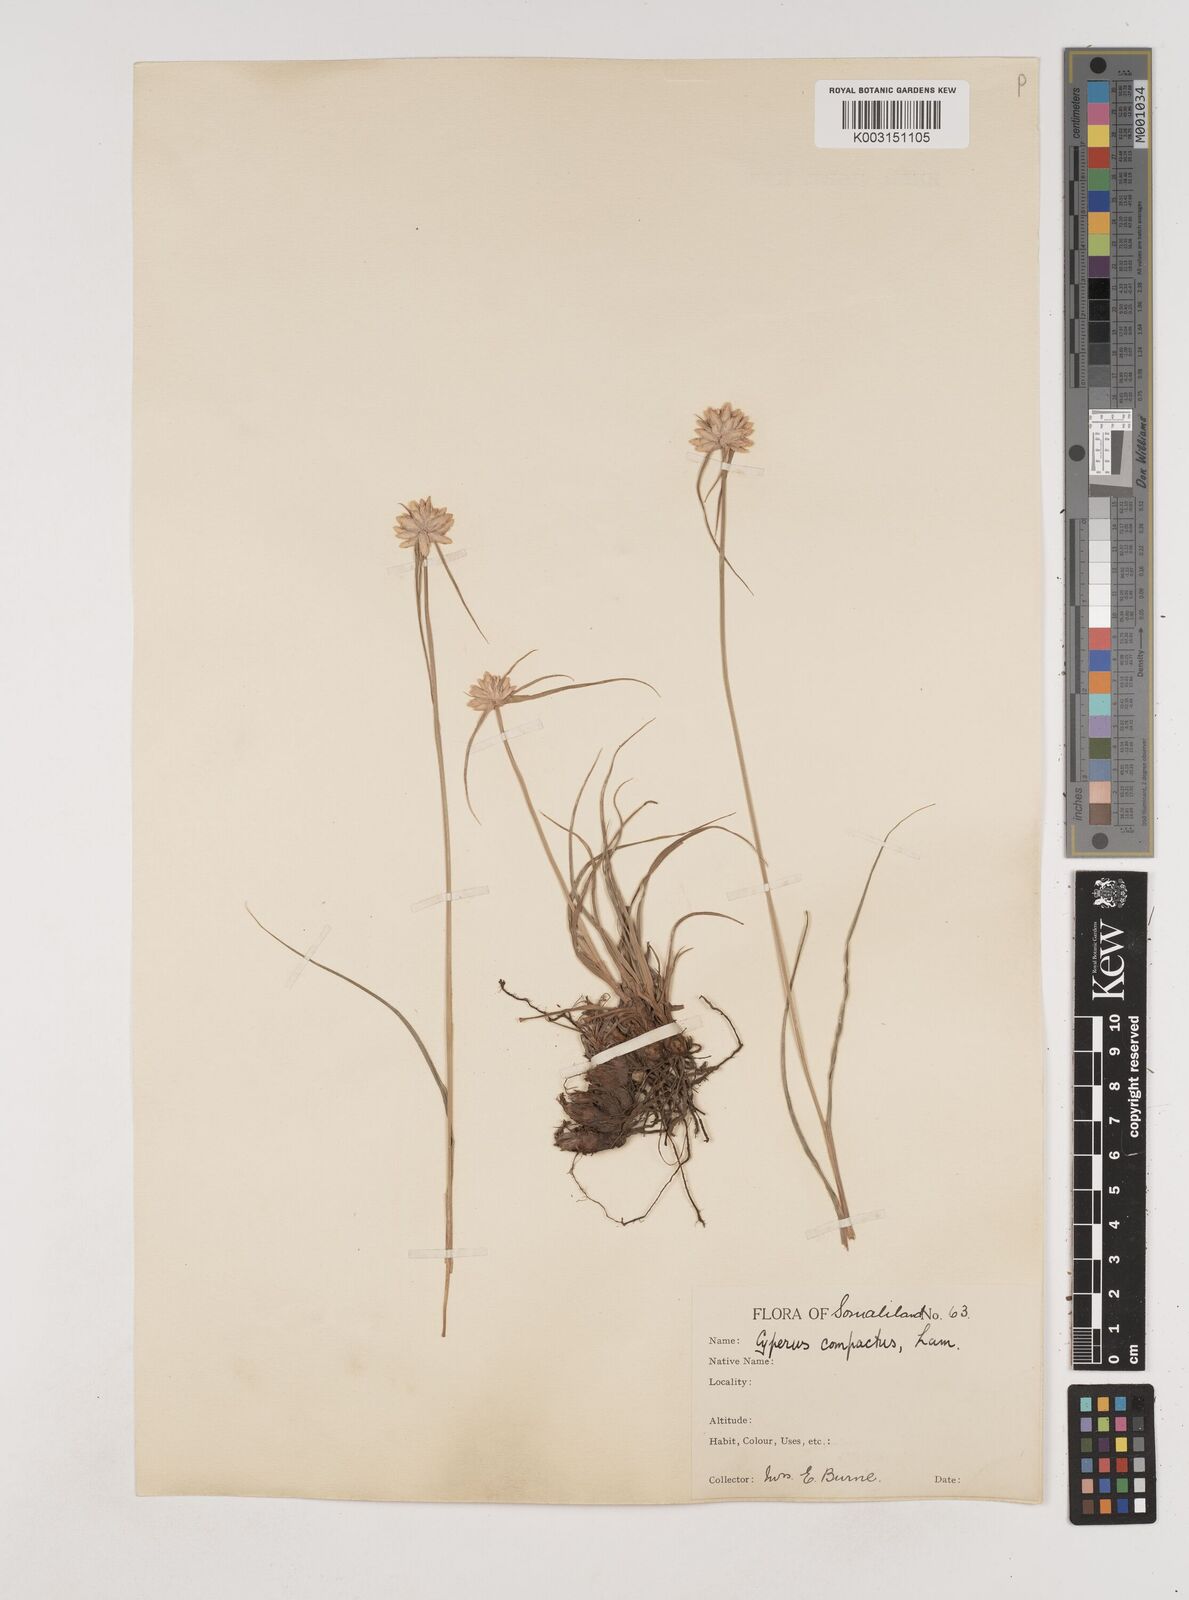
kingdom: Plantae
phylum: Tracheophyta
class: Liliopsida
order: Poales
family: Cyperaceae
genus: Cyperus
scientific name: Cyperus niveus
